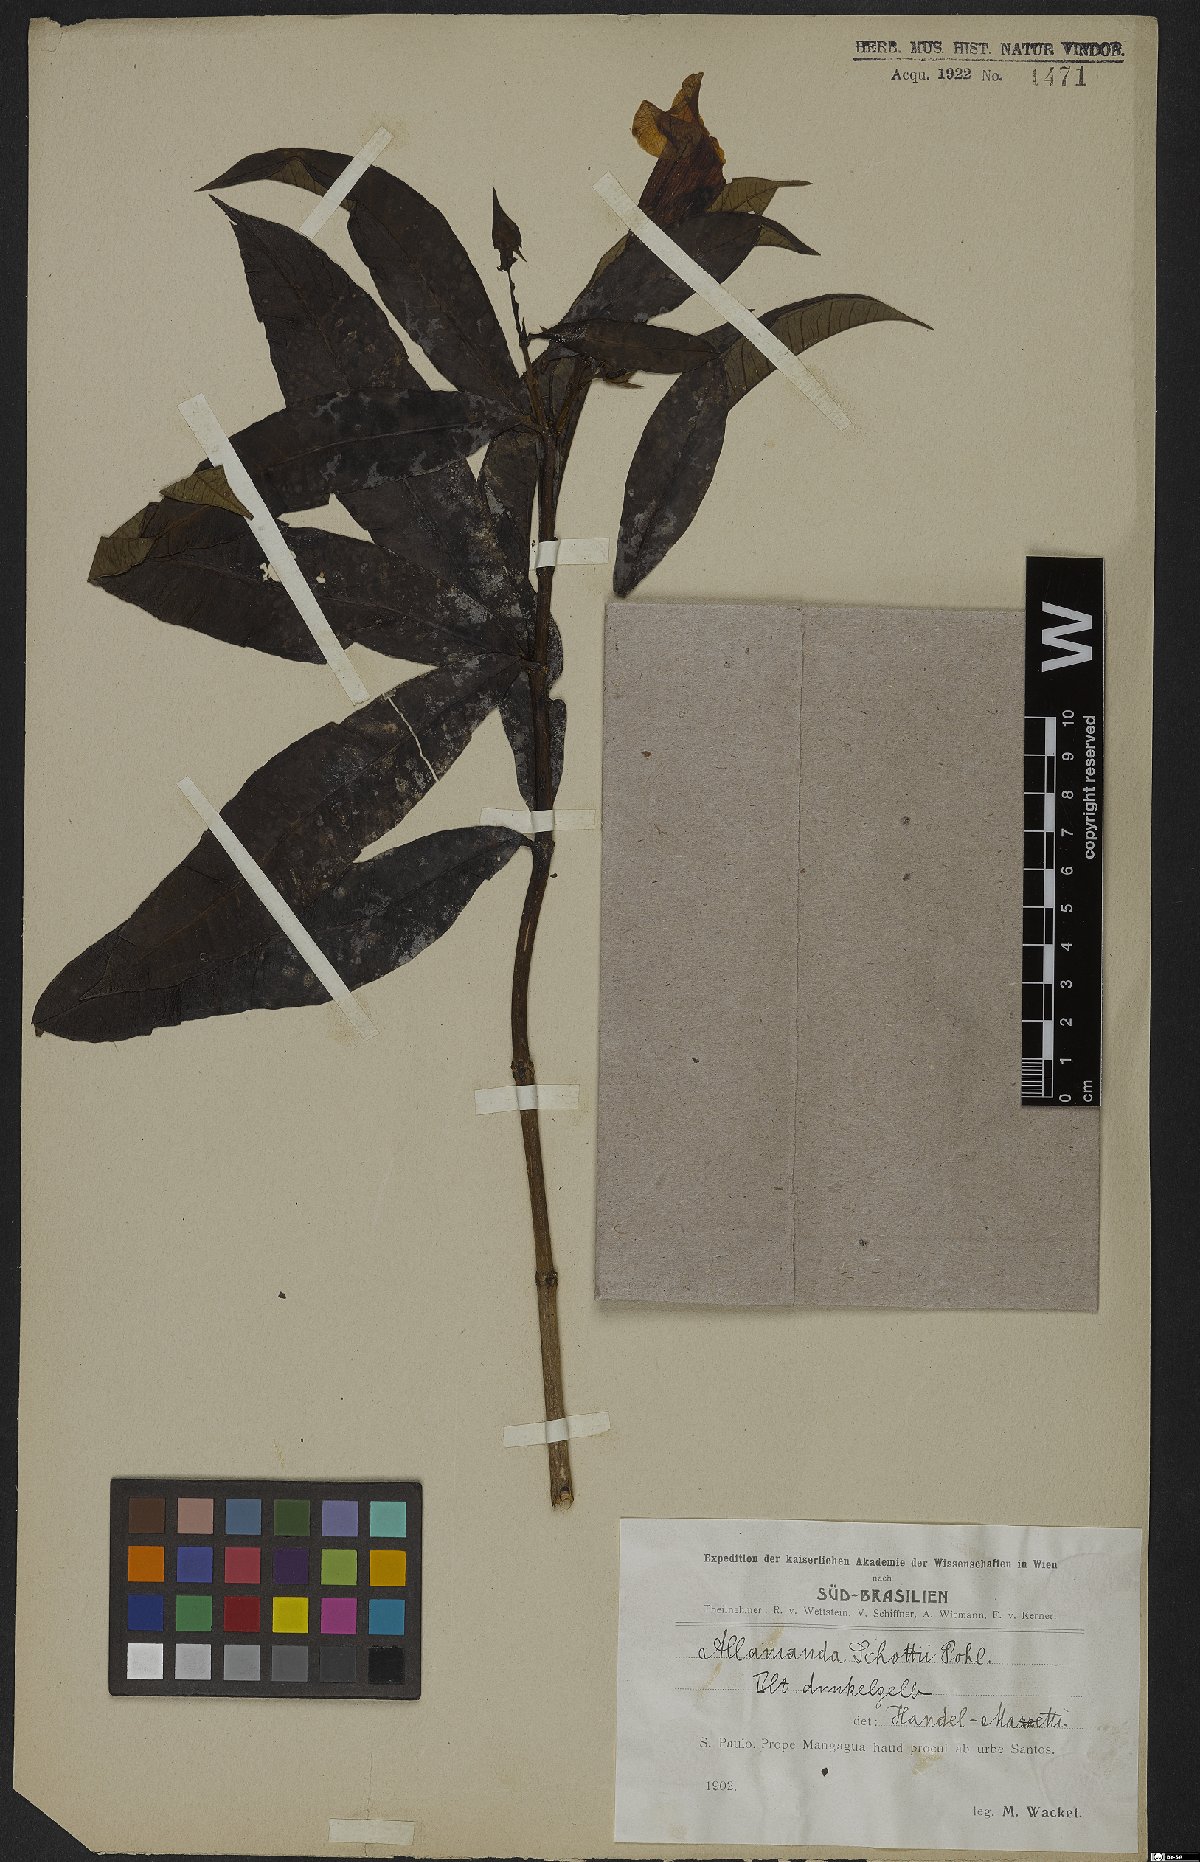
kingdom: Plantae
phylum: Tracheophyta
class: Magnoliopsida
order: Gentianales
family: Apocynaceae
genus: Allamanda
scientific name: Allamanda schottii
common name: Bush allamanda
